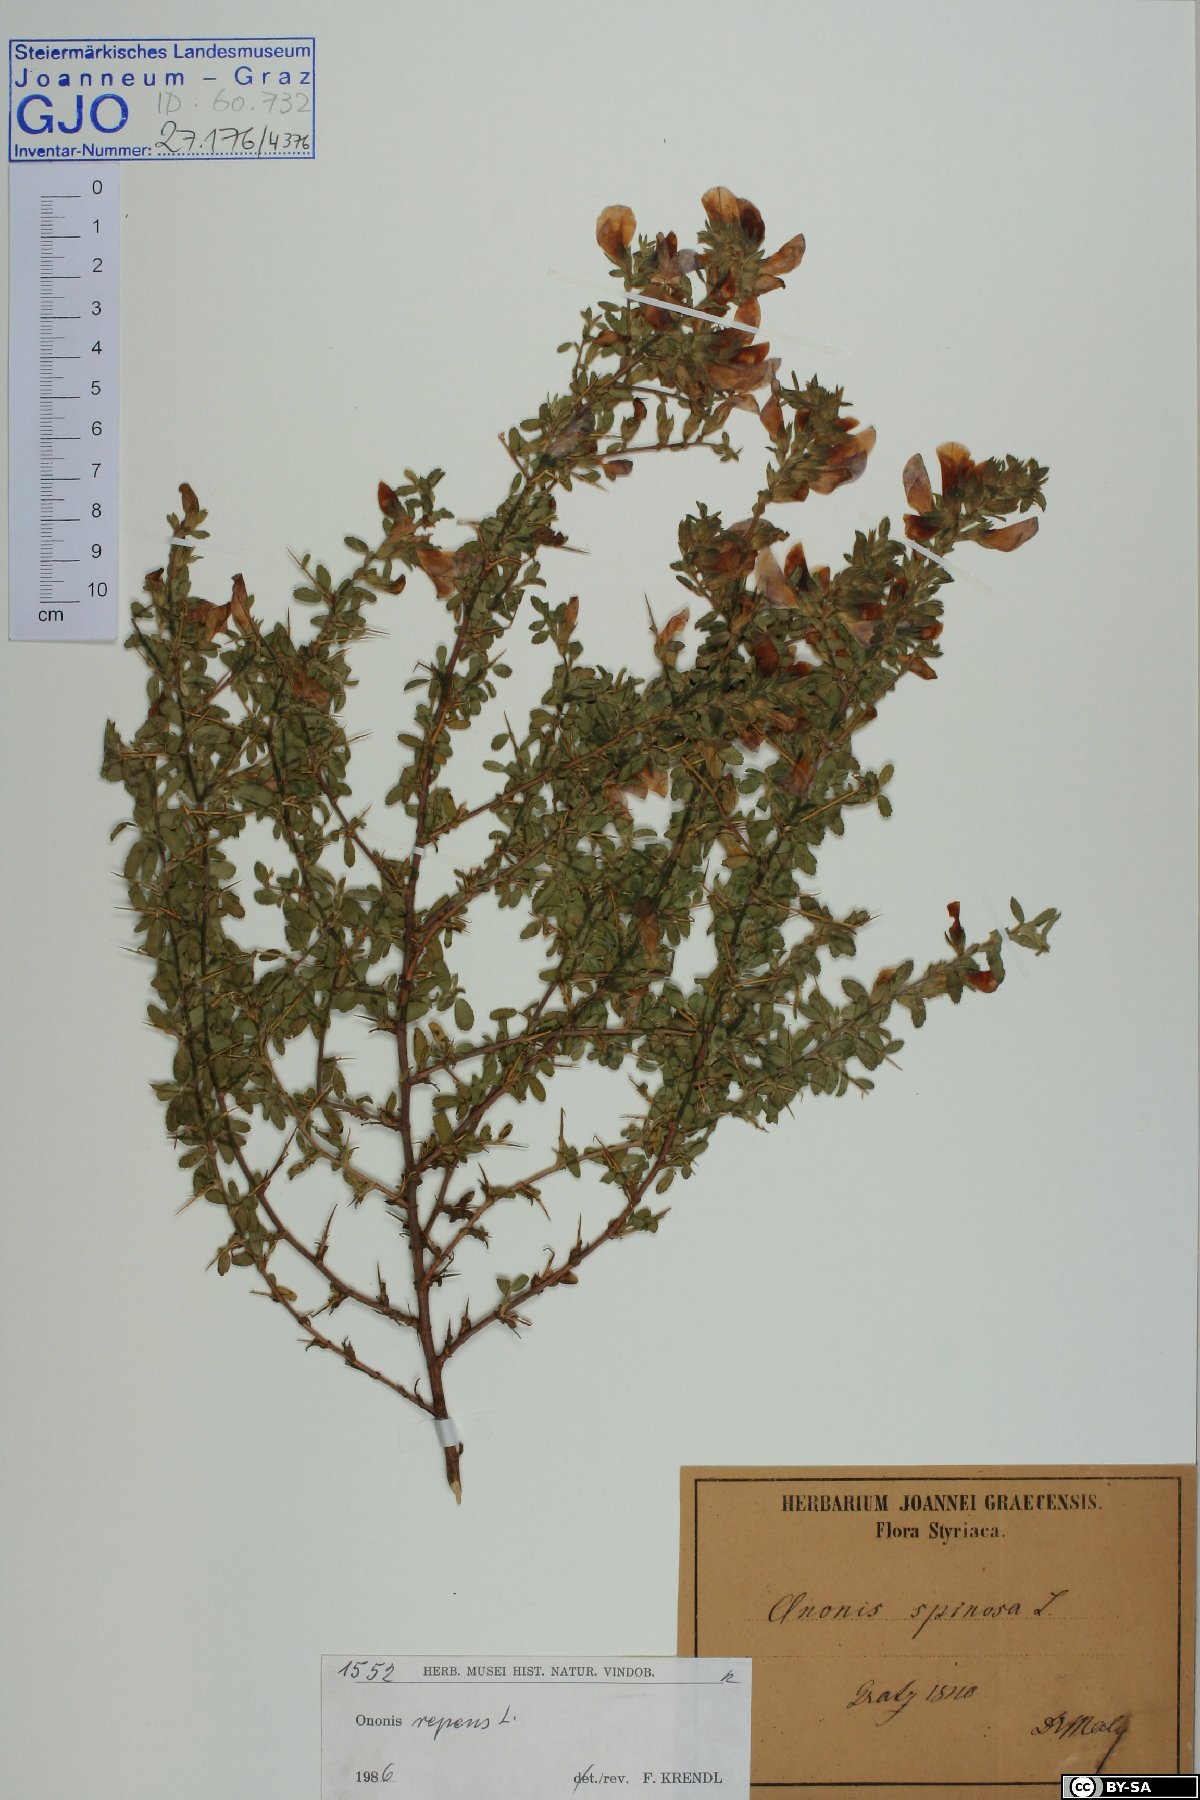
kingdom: Plantae
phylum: Tracheophyta
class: Magnoliopsida
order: Fabales
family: Fabaceae
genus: Ononis
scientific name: Ononis spinosa
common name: Spiny restharrow
